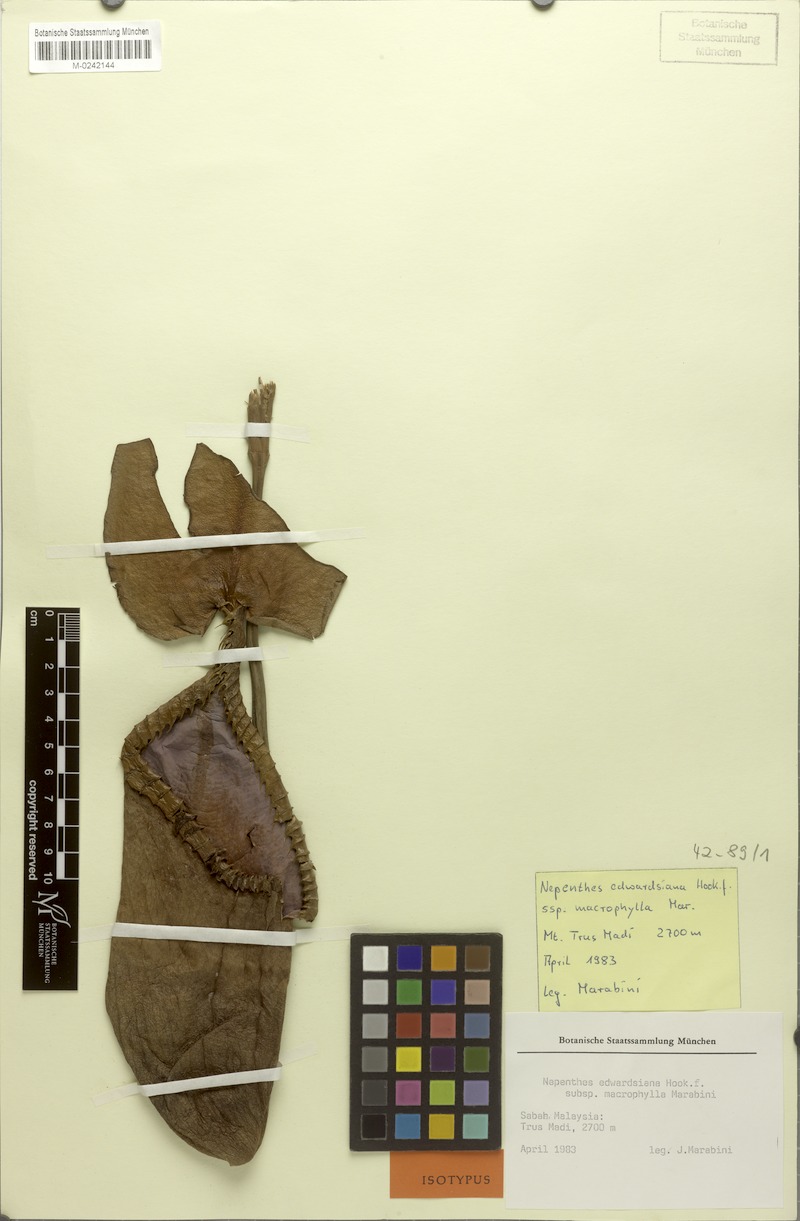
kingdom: Plantae
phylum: Tracheophyta
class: Magnoliopsida
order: Caryophyllales
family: Nepenthaceae
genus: Nepenthes
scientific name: Nepenthes macrophylla
